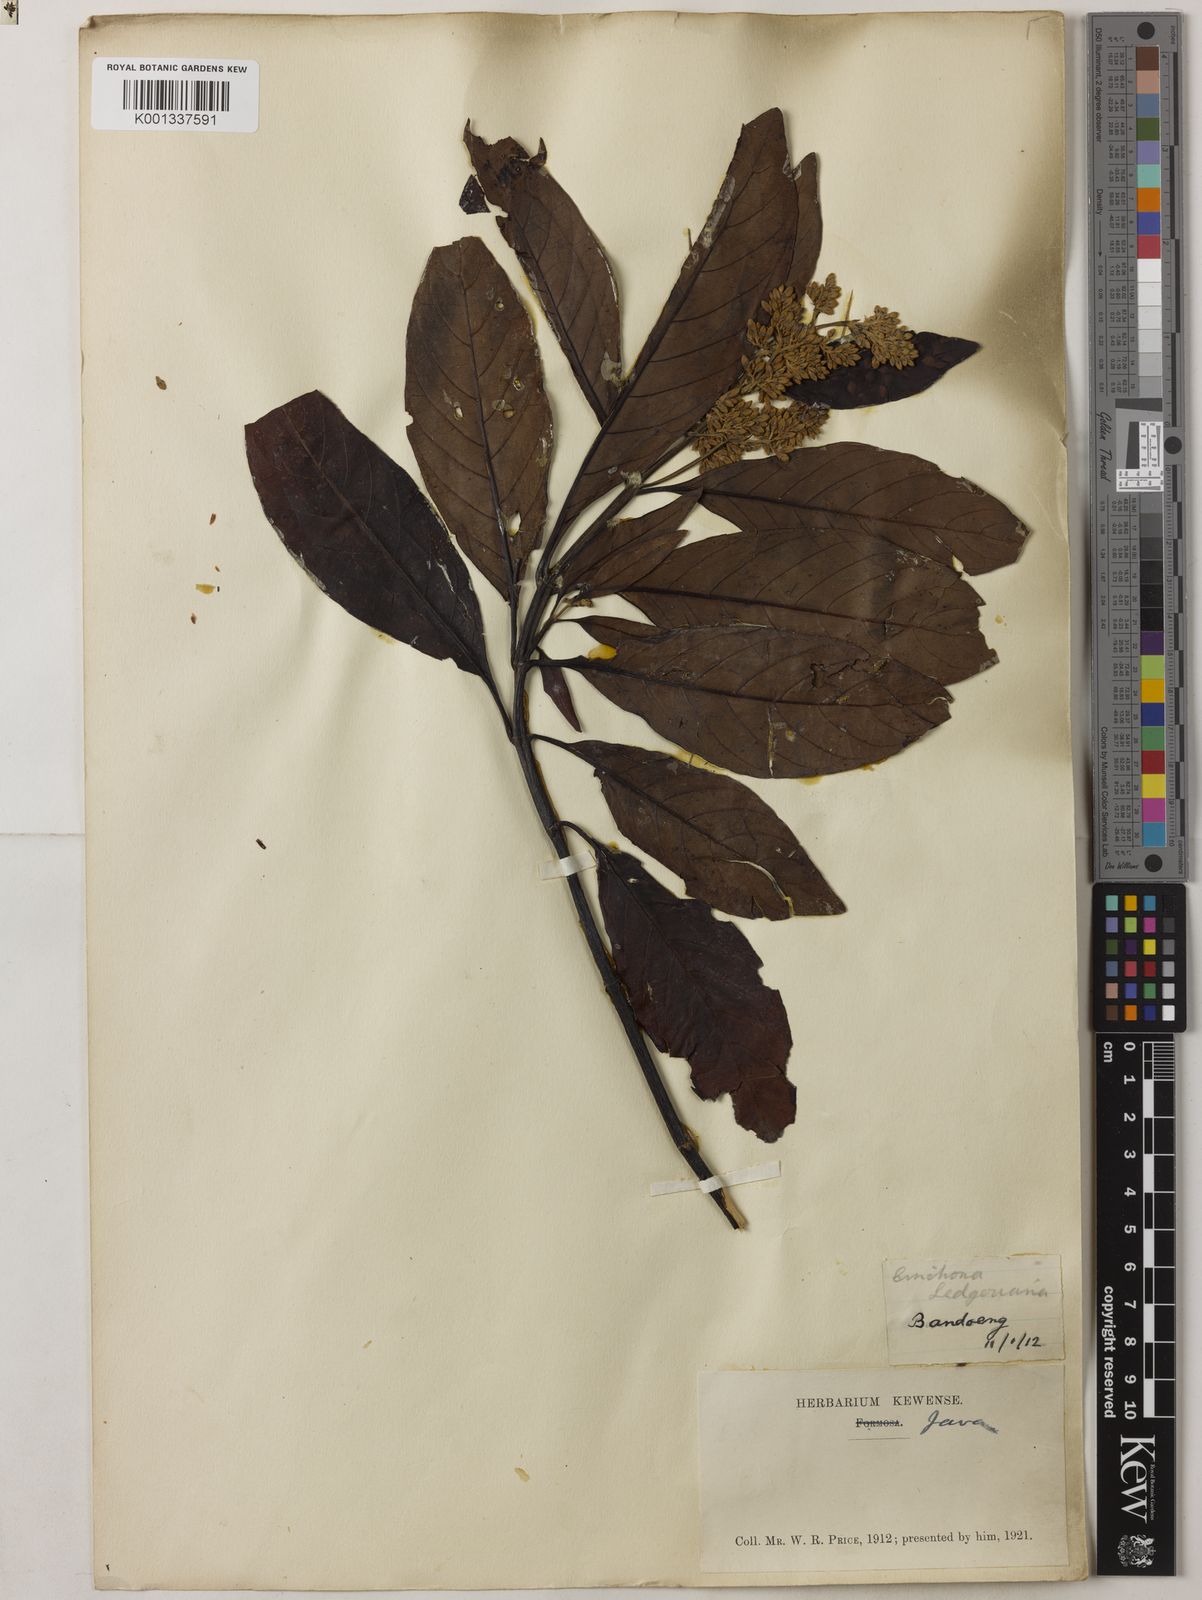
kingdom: Plantae
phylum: Tracheophyta
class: Magnoliopsida
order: Gentianales
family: Rubiaceae
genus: Cinchona
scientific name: Cinchona calisaya
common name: Ledgerbark
